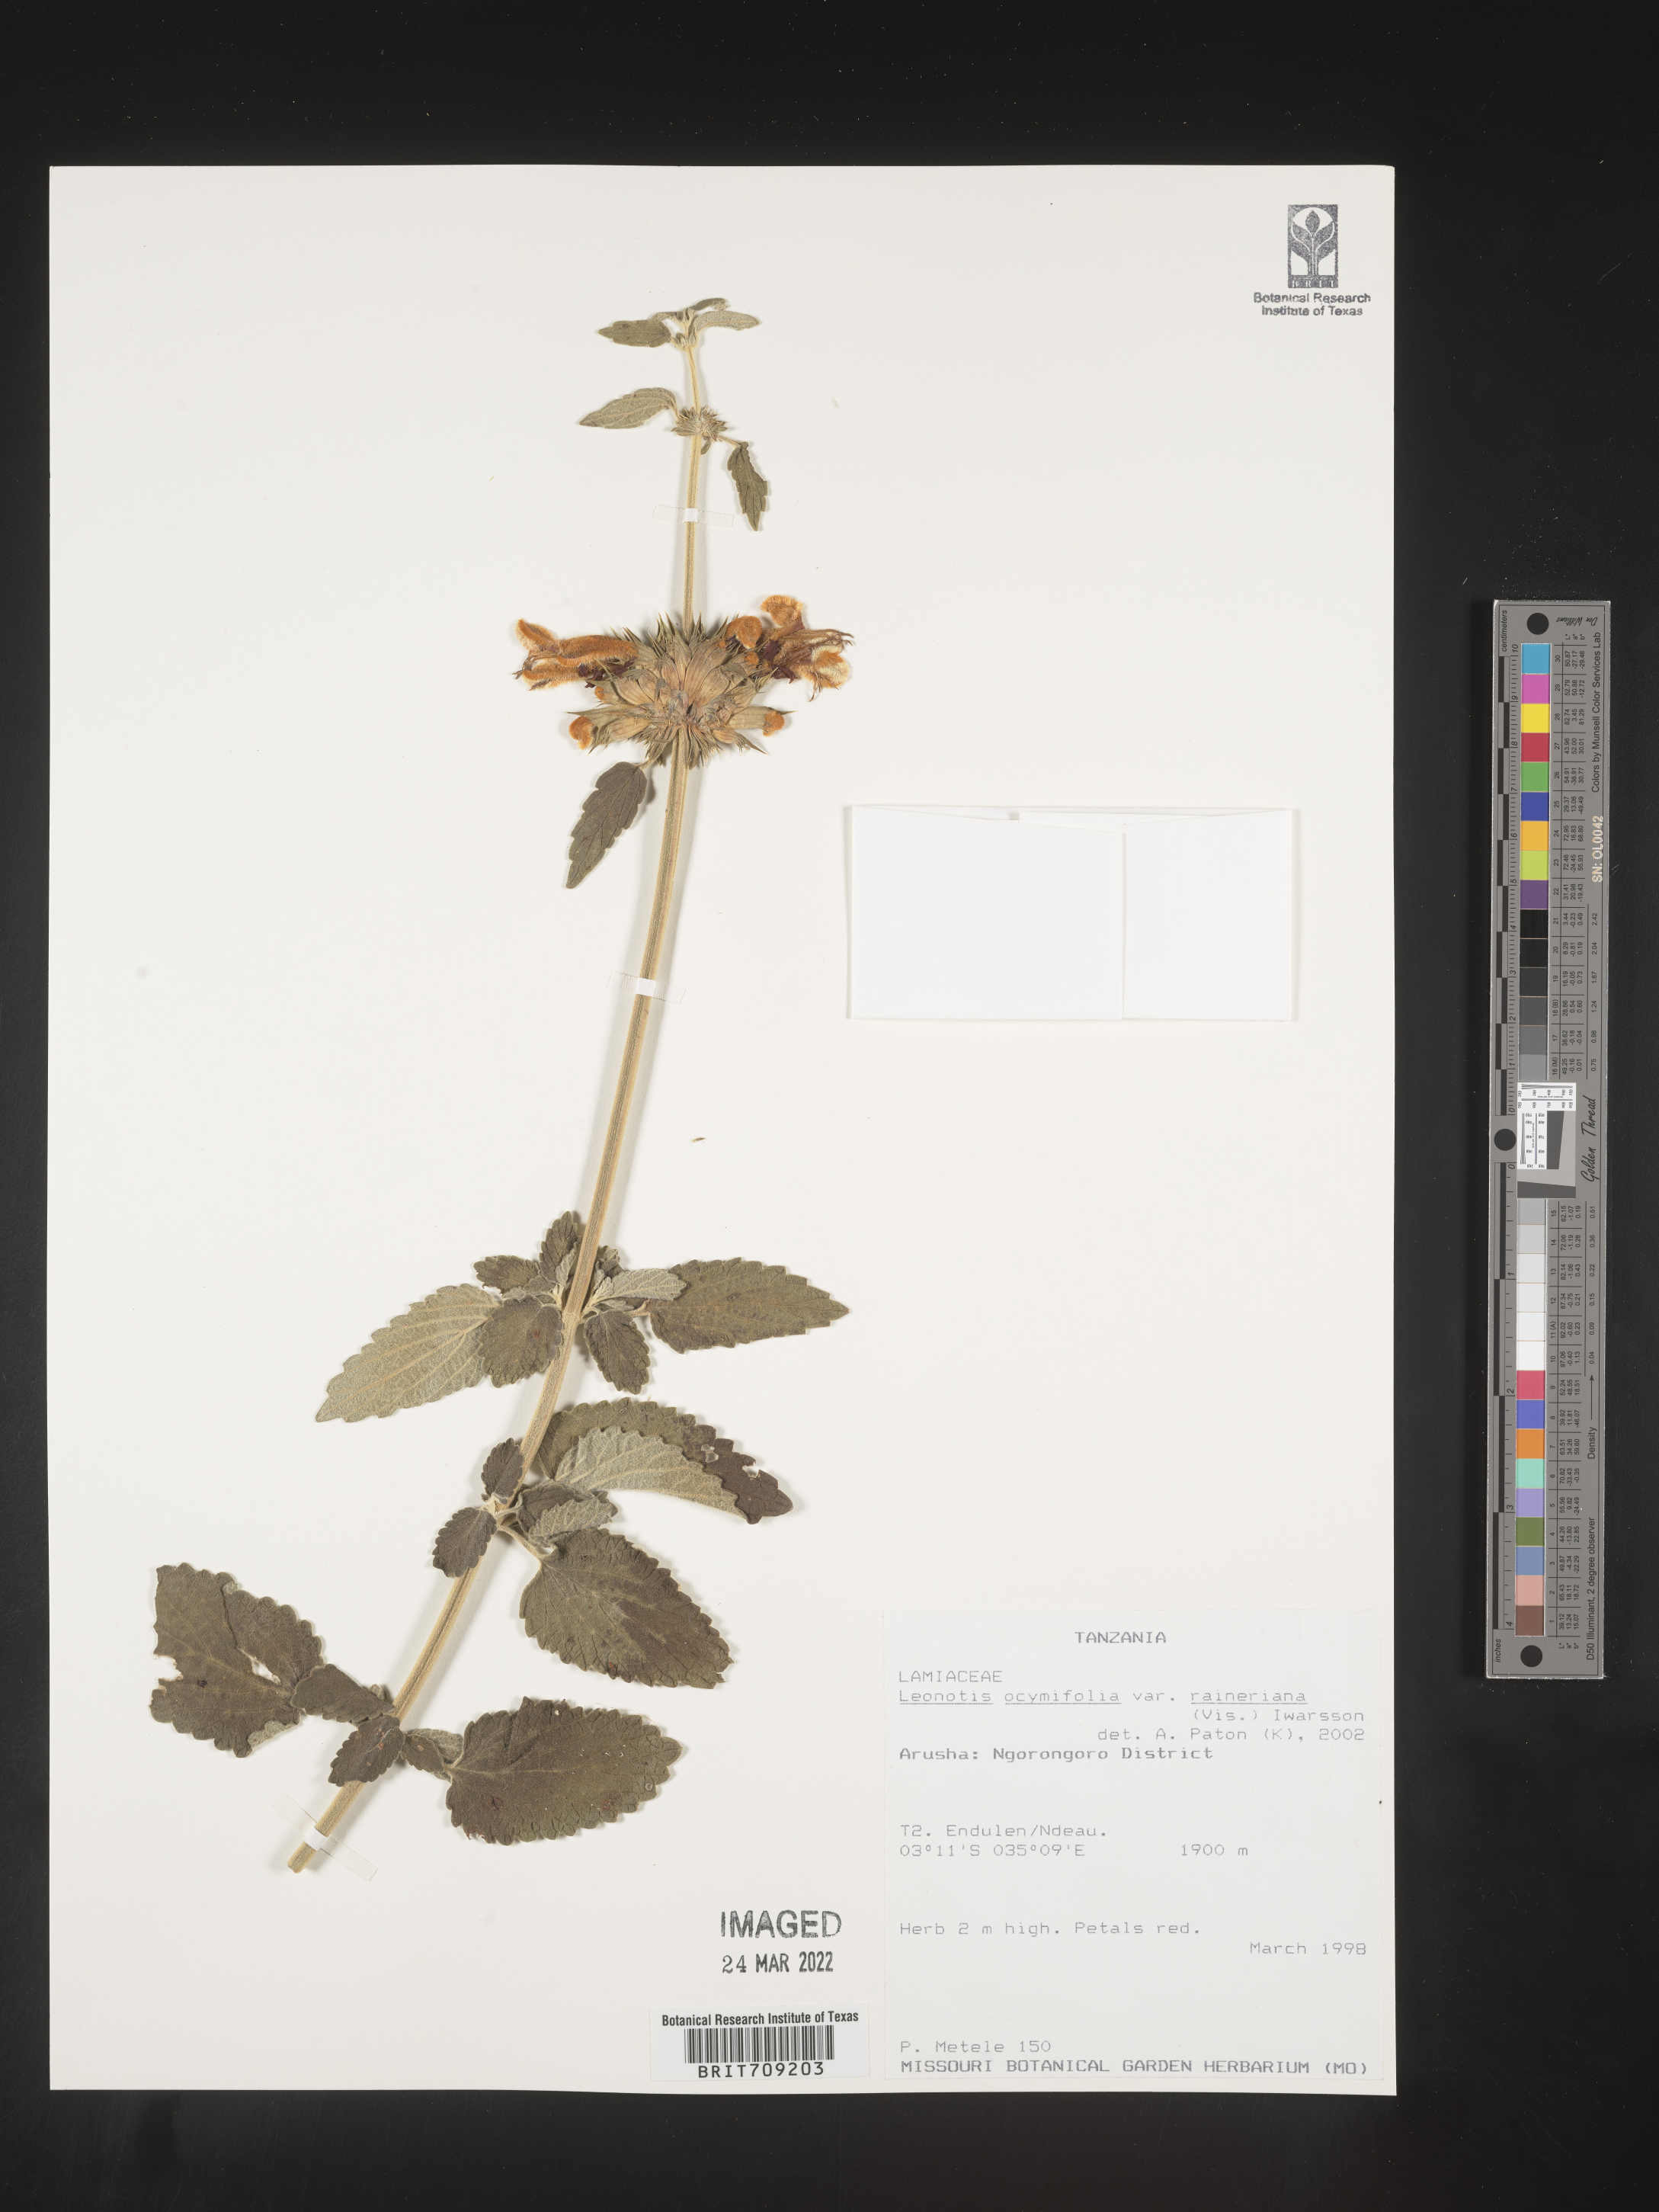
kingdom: Plantae
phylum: Tracheophyta
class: Magnoliopsida
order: Lamiales
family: Lamiaceae
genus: Leonotis
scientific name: Leonotis
